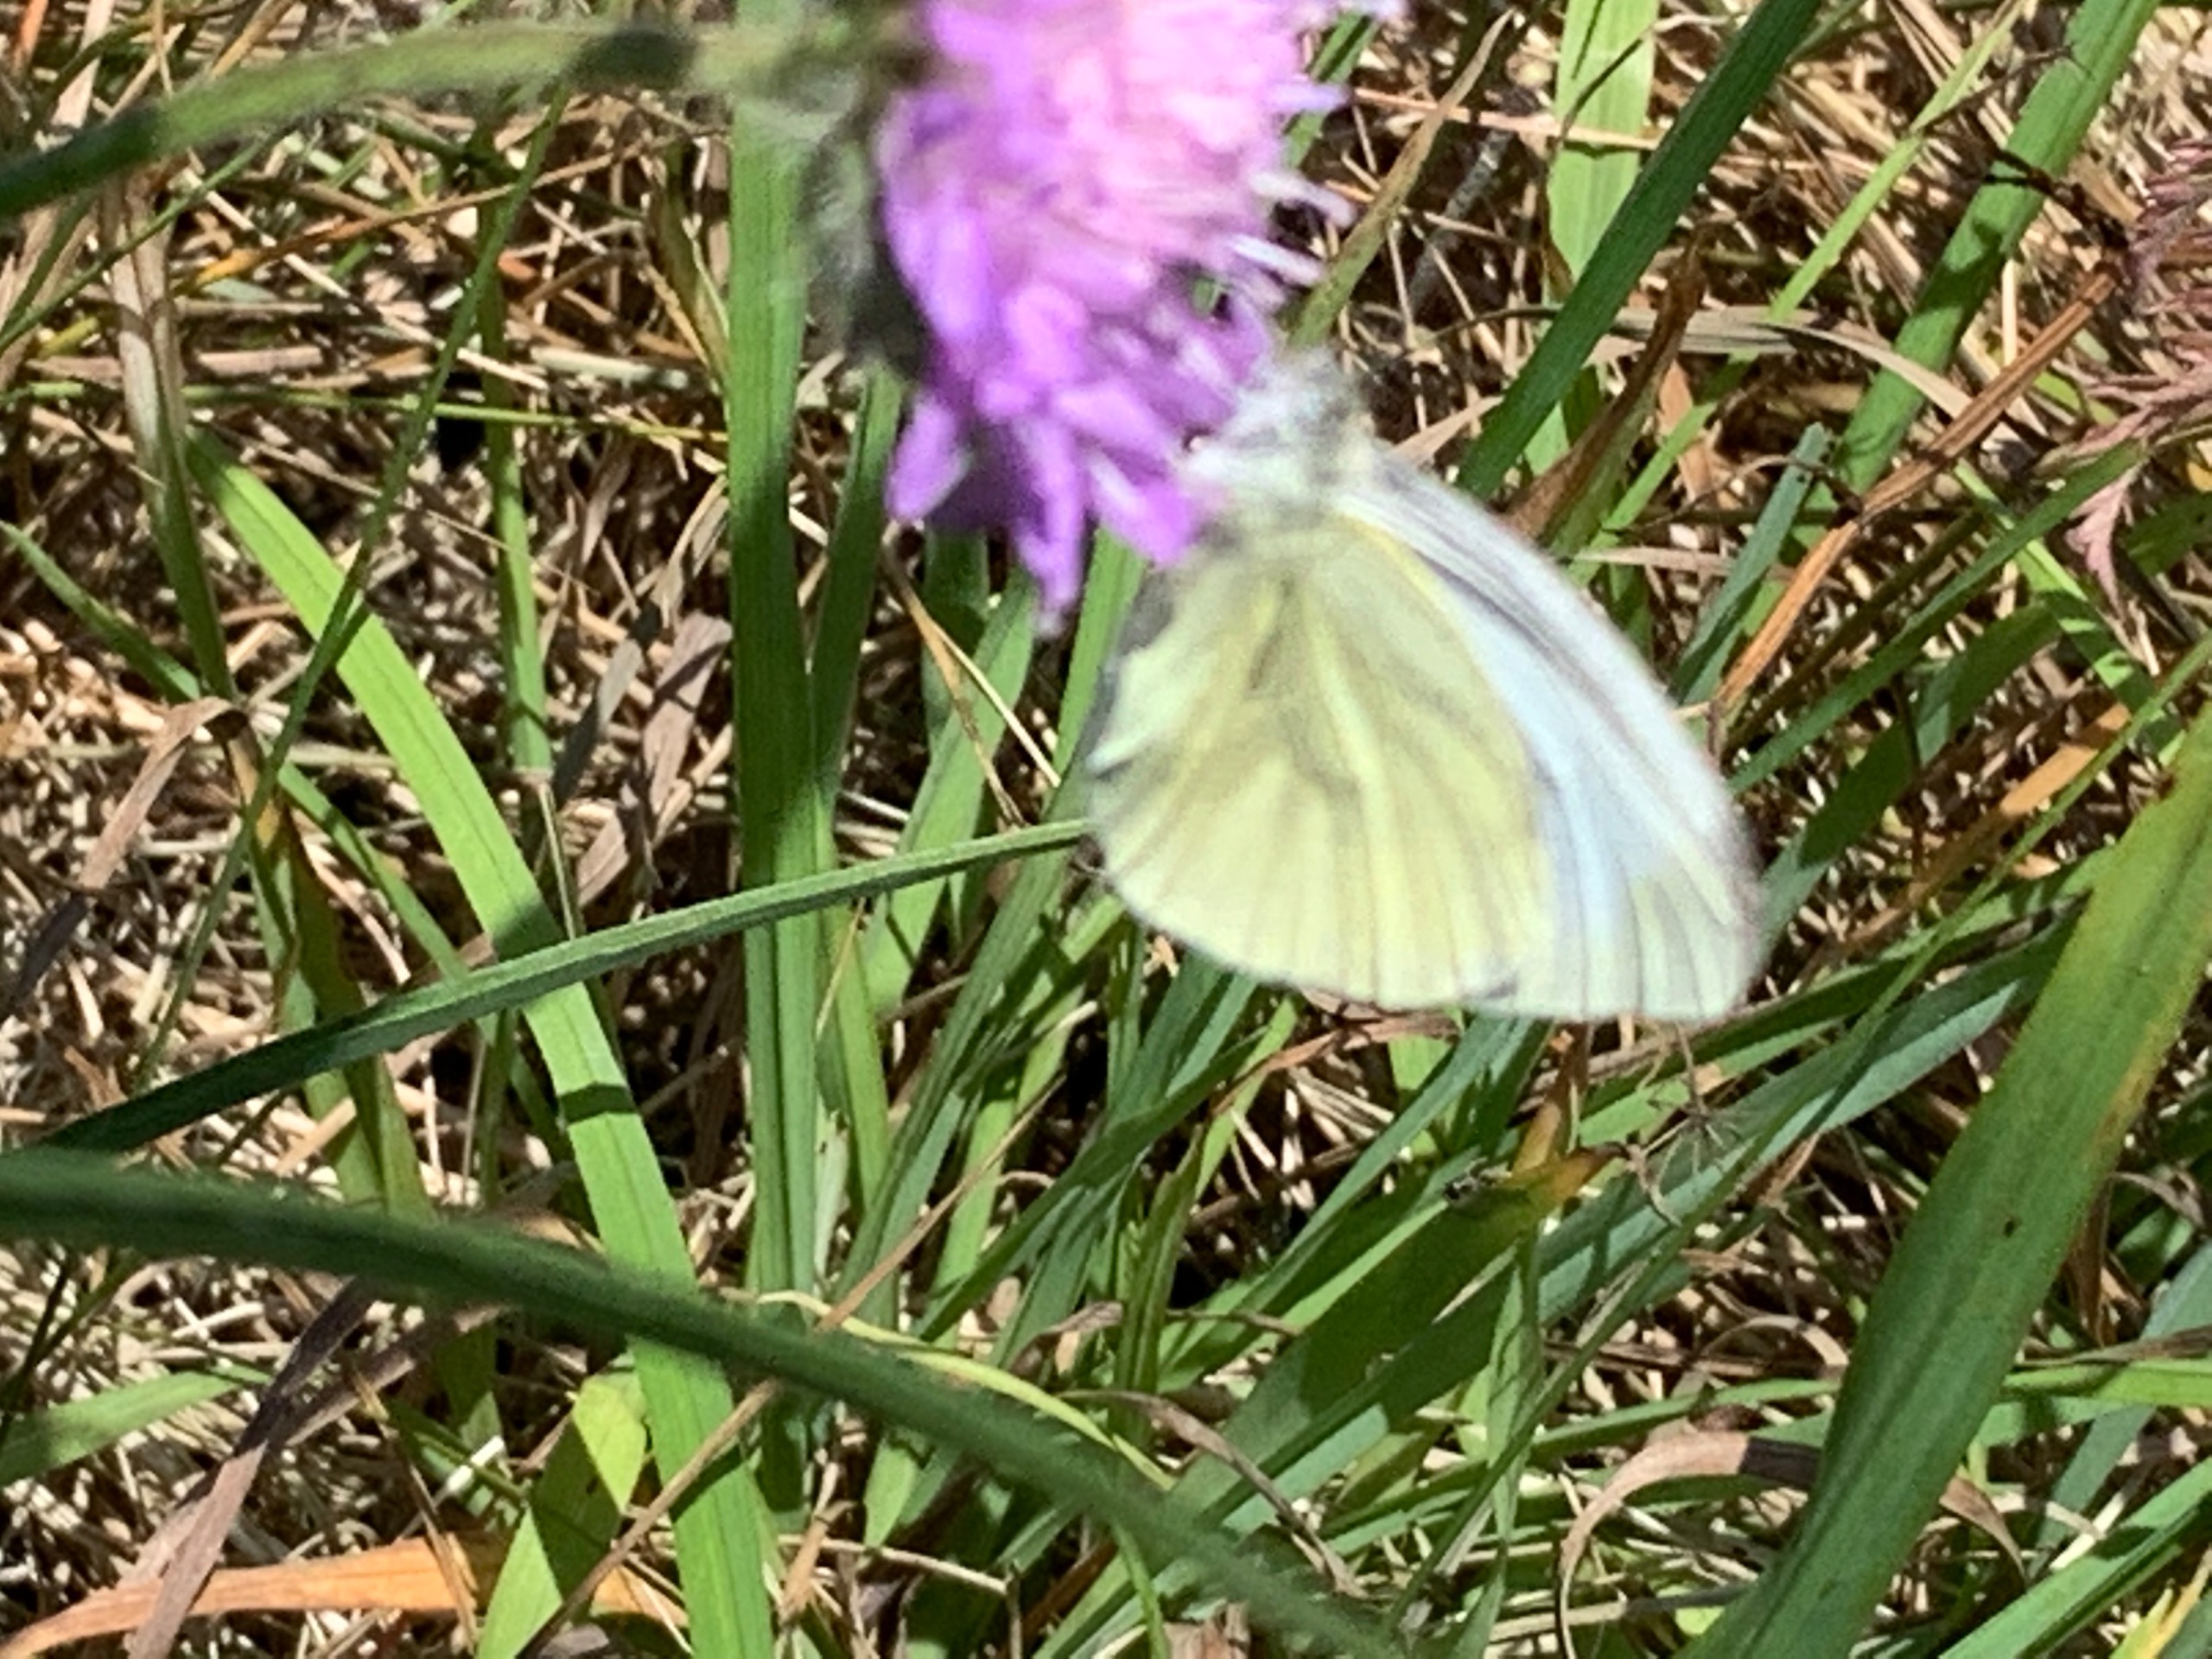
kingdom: Animalia
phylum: Arthropoda
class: Insecta
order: Lepidoptera
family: Pieridae
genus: Pieris
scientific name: Pieris napi
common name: Grønåret kålsommerfugl
